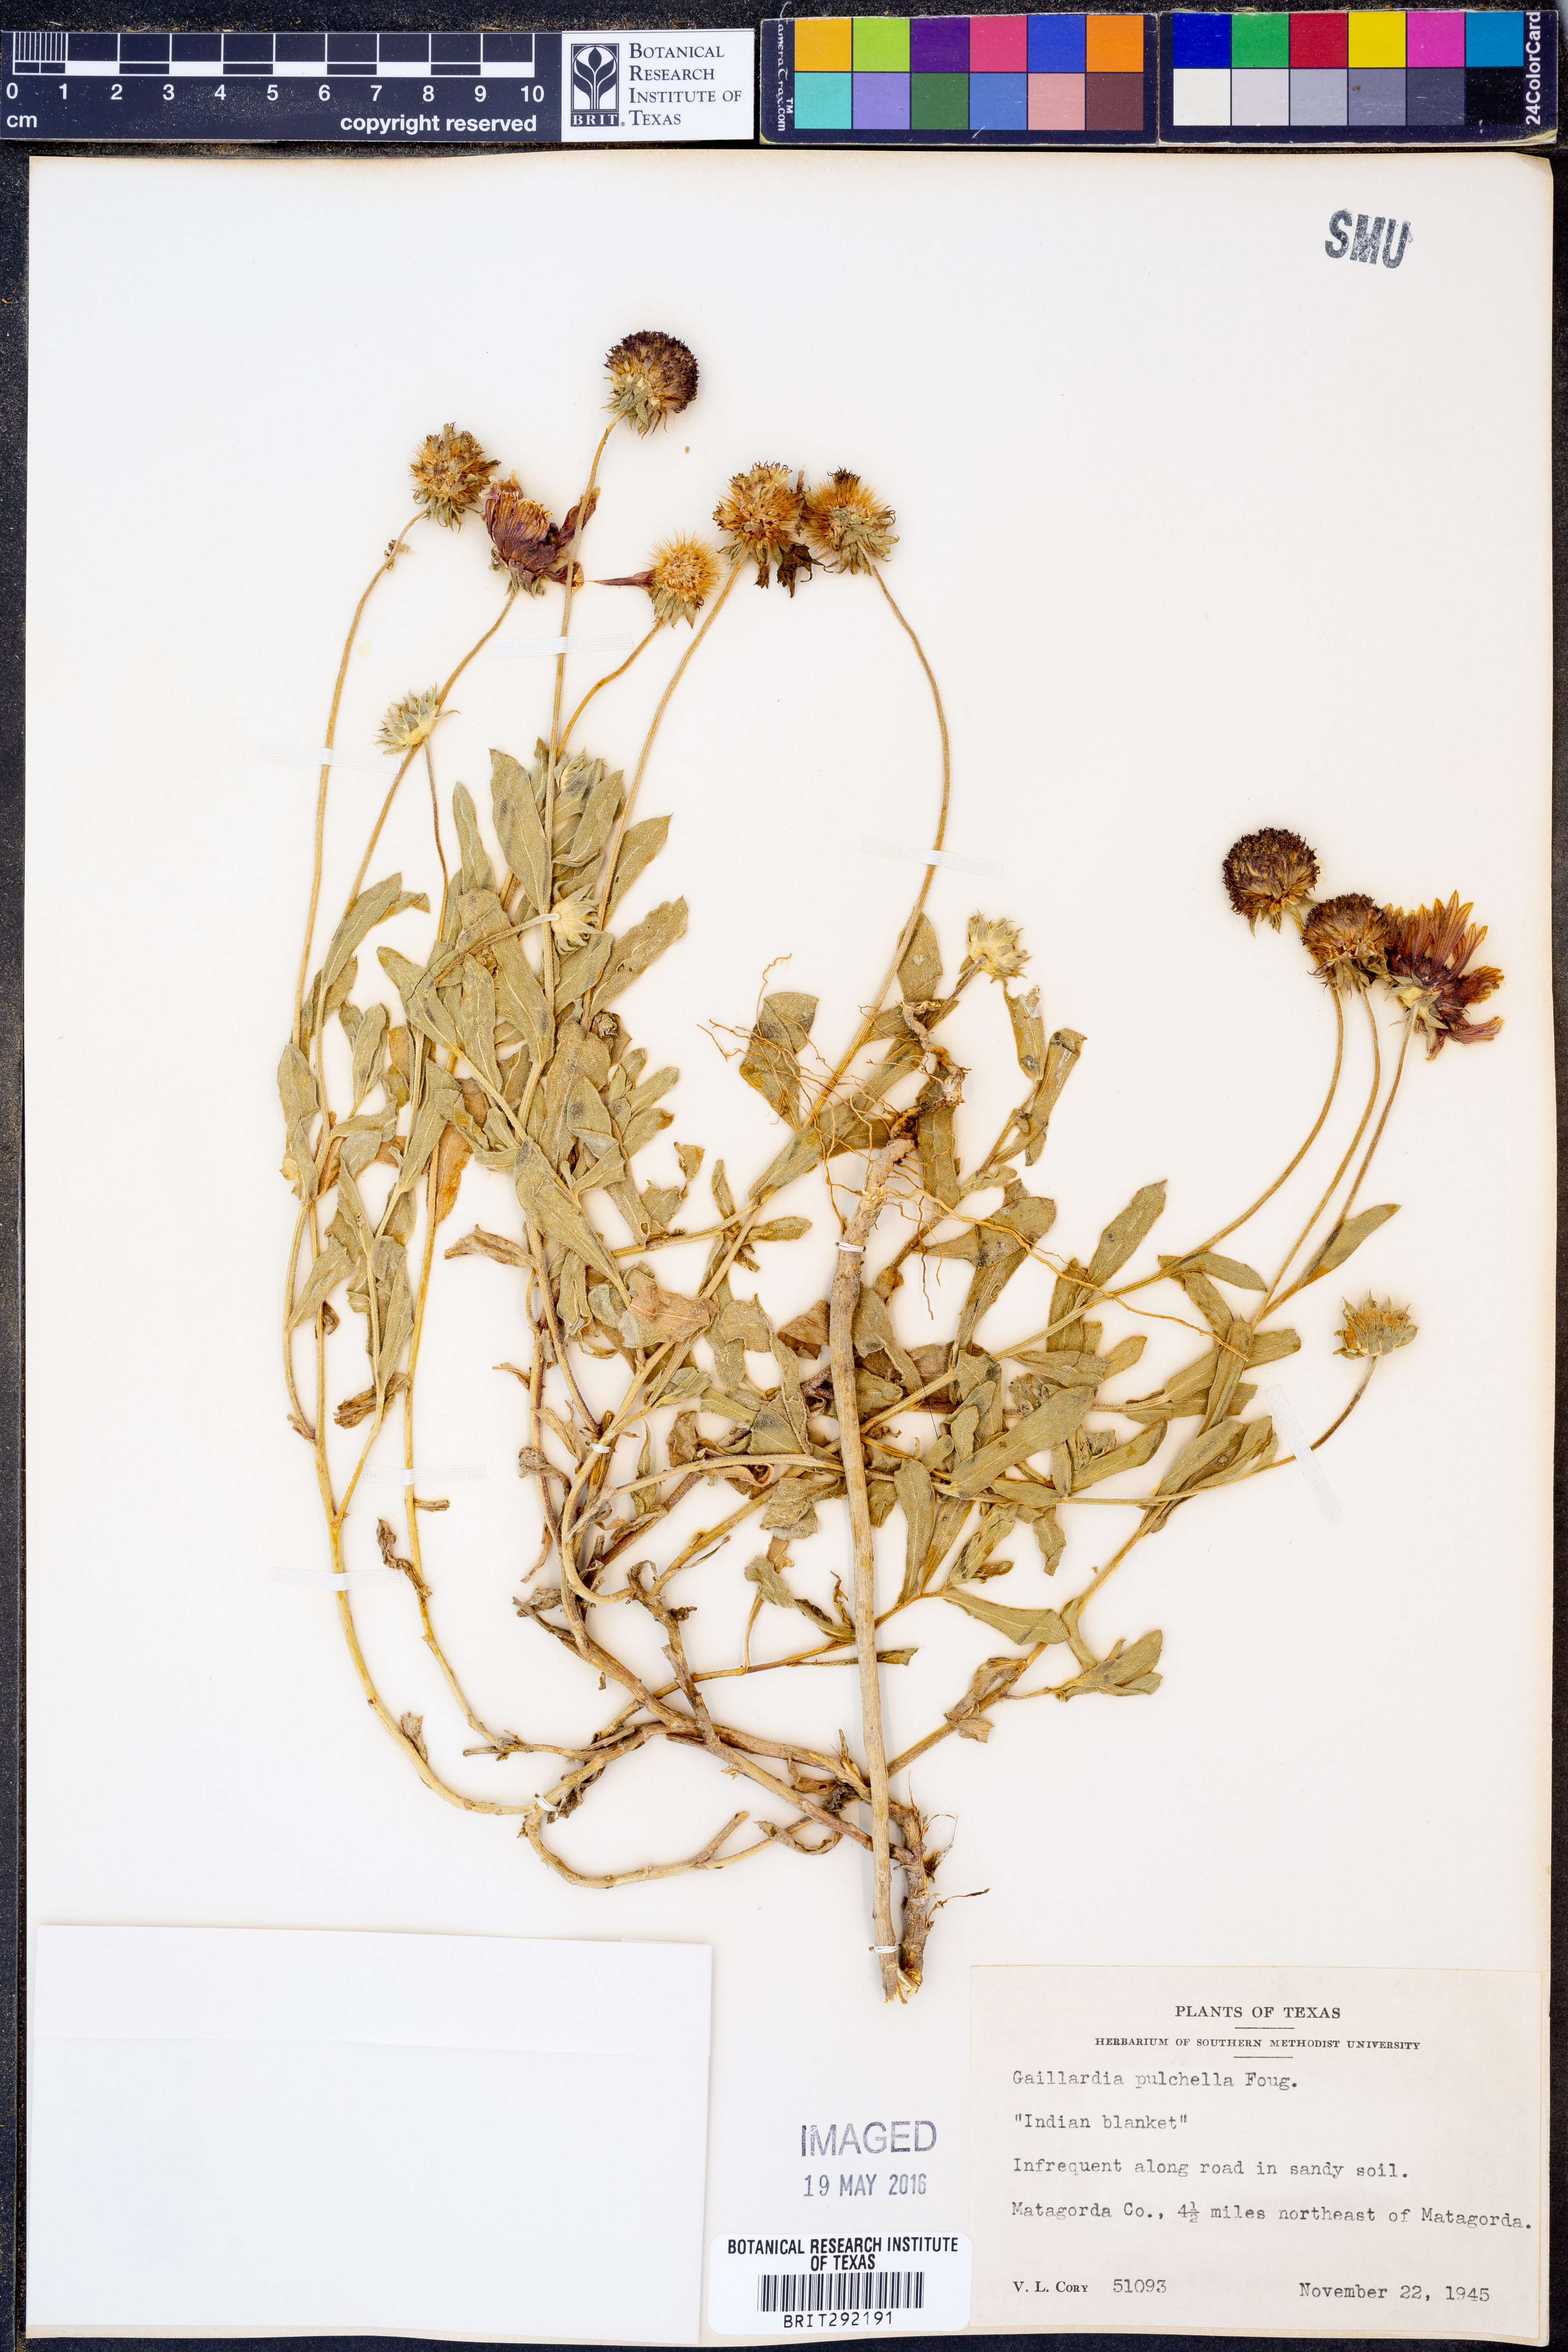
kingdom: Plantae
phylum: Tracheophyta
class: Magnoliopsida
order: Asterales
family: Asteraceae
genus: Gaillardia
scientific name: Gaillardia pulchella
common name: Firewheel
